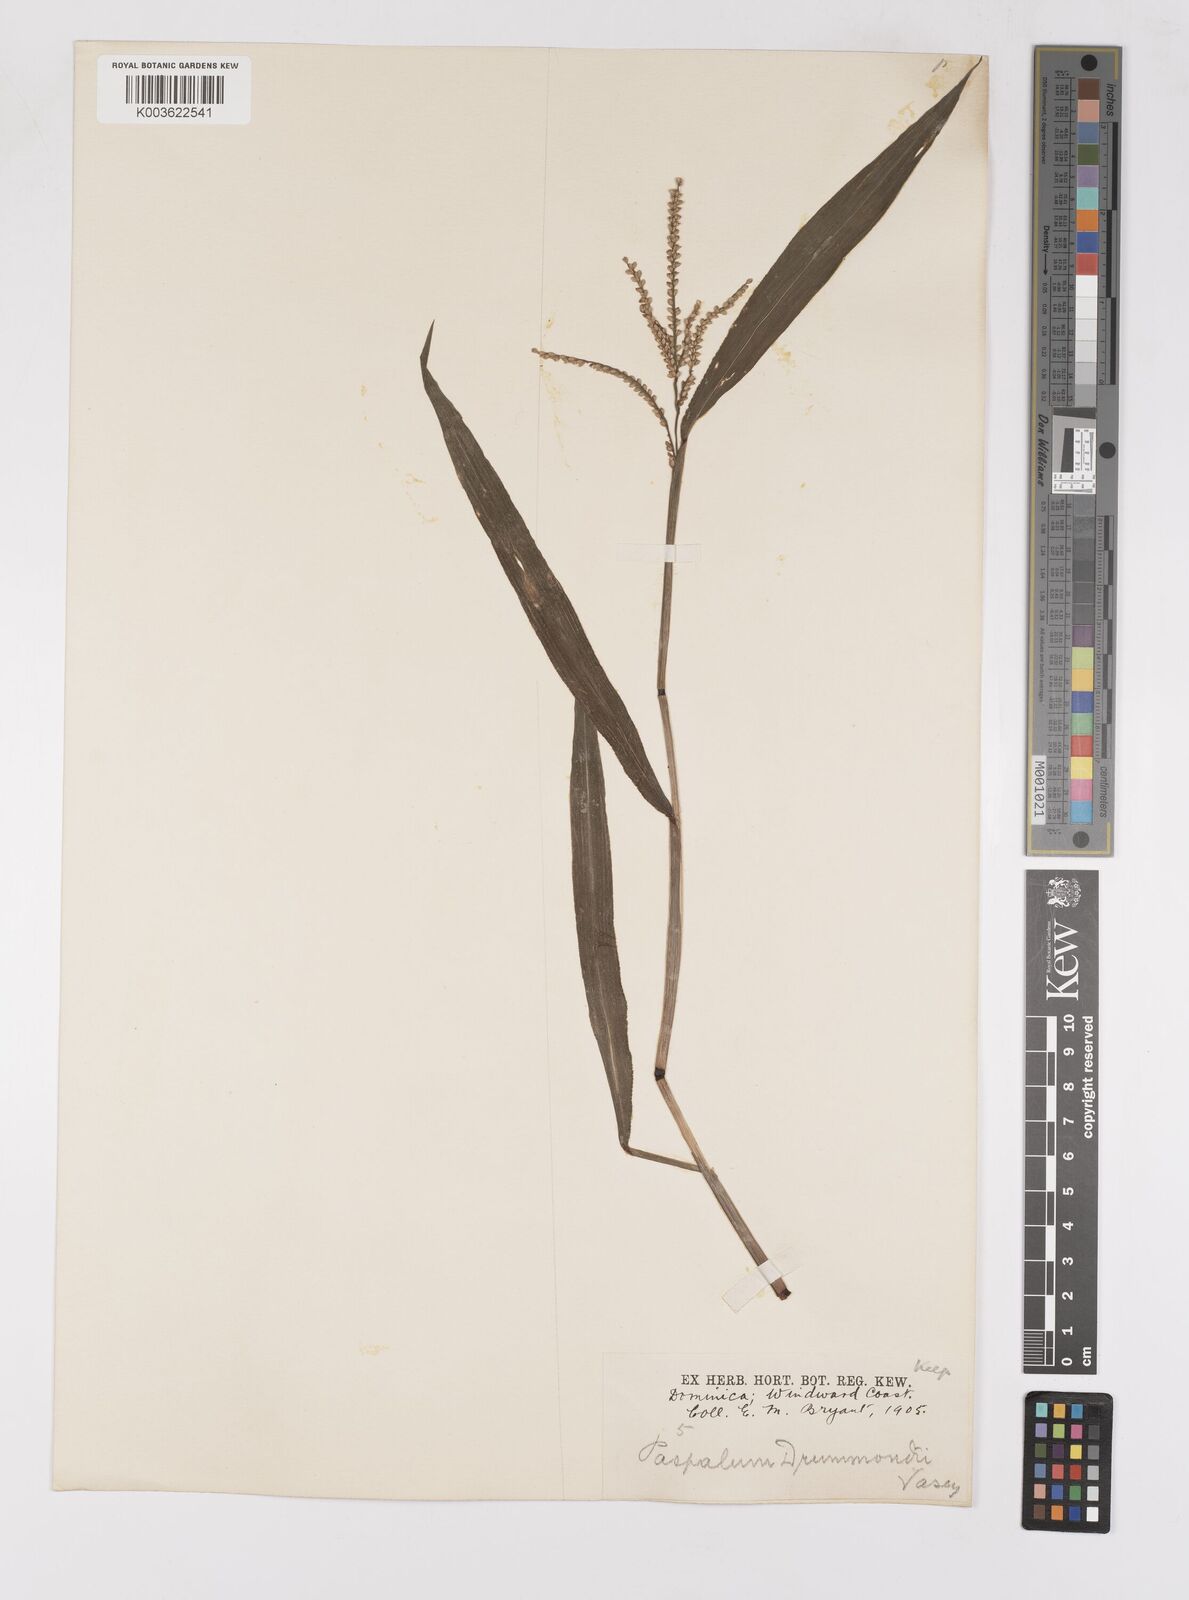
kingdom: Plantae
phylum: Tracheophyta
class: Liliopsida
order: Poales
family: Poaceae
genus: Paspalum
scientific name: Paspalum langei
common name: Rusty-seed paspalum
